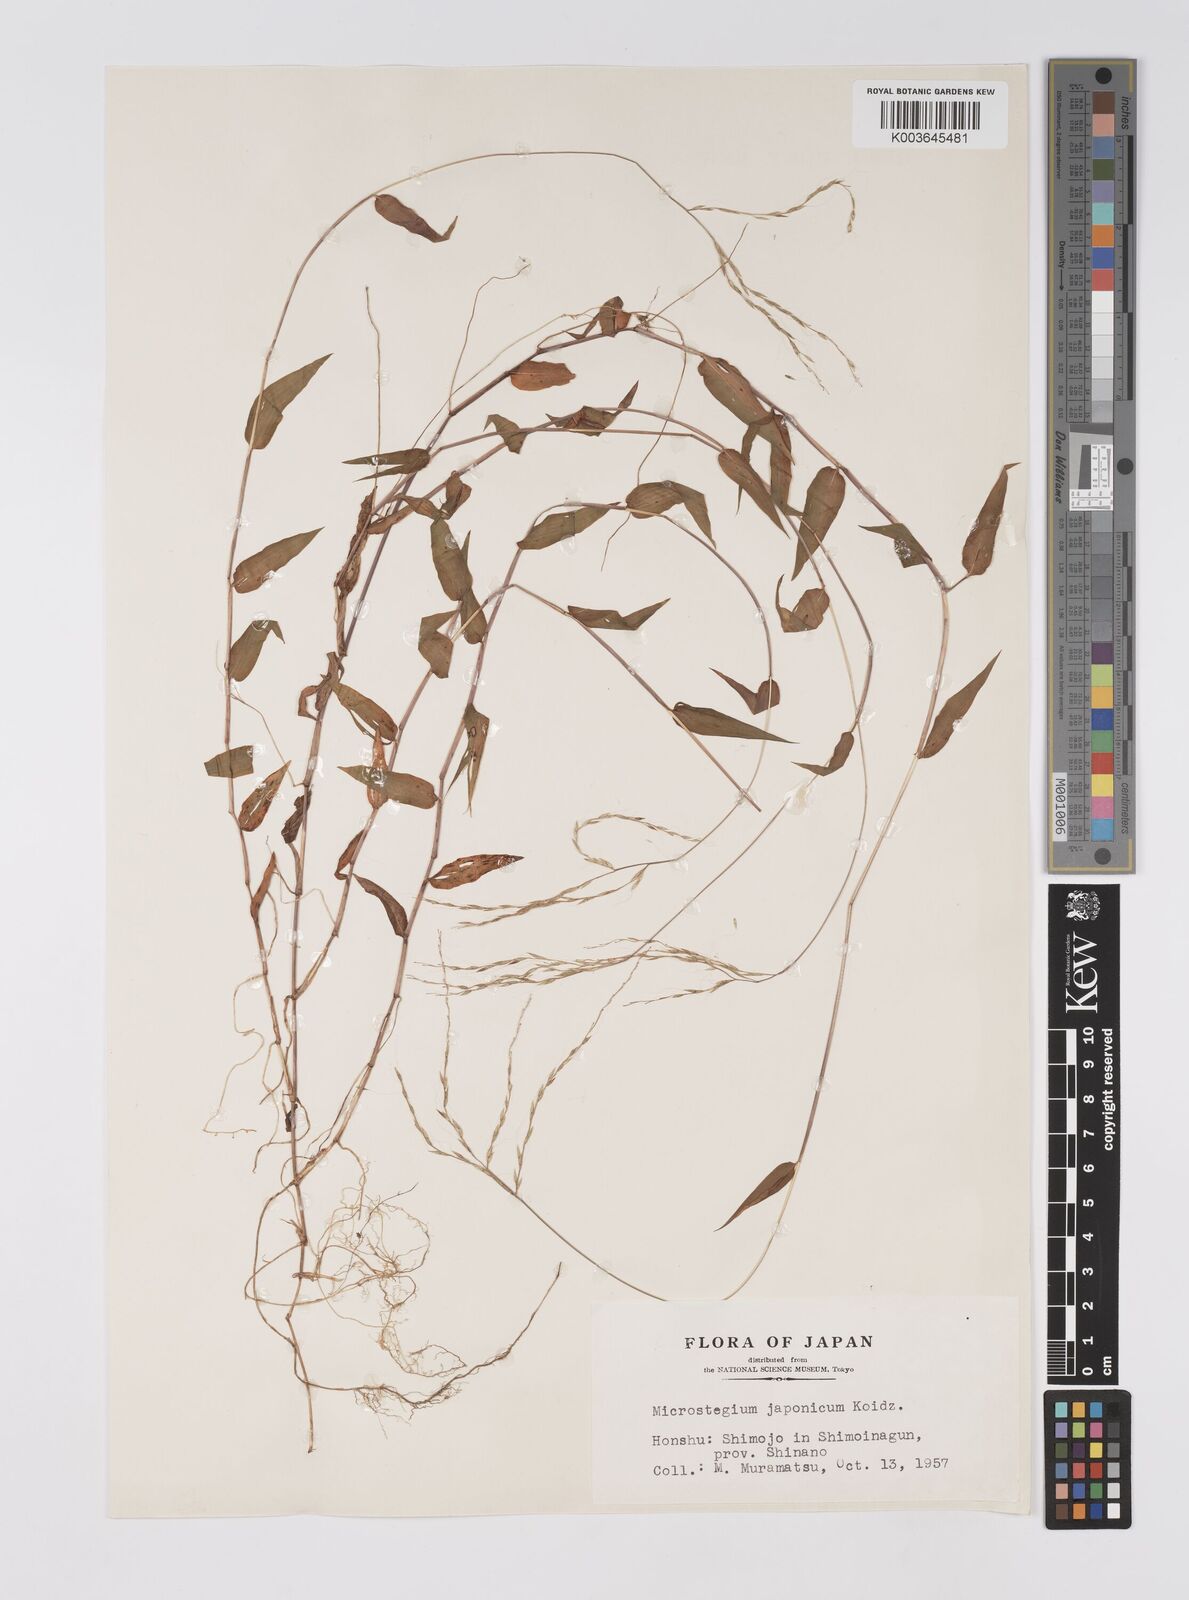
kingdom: Plantae
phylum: Tracheophyta
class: Liliopsida
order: Poales
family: Poaceae
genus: Microstegium
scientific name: Microstegium japonicum
